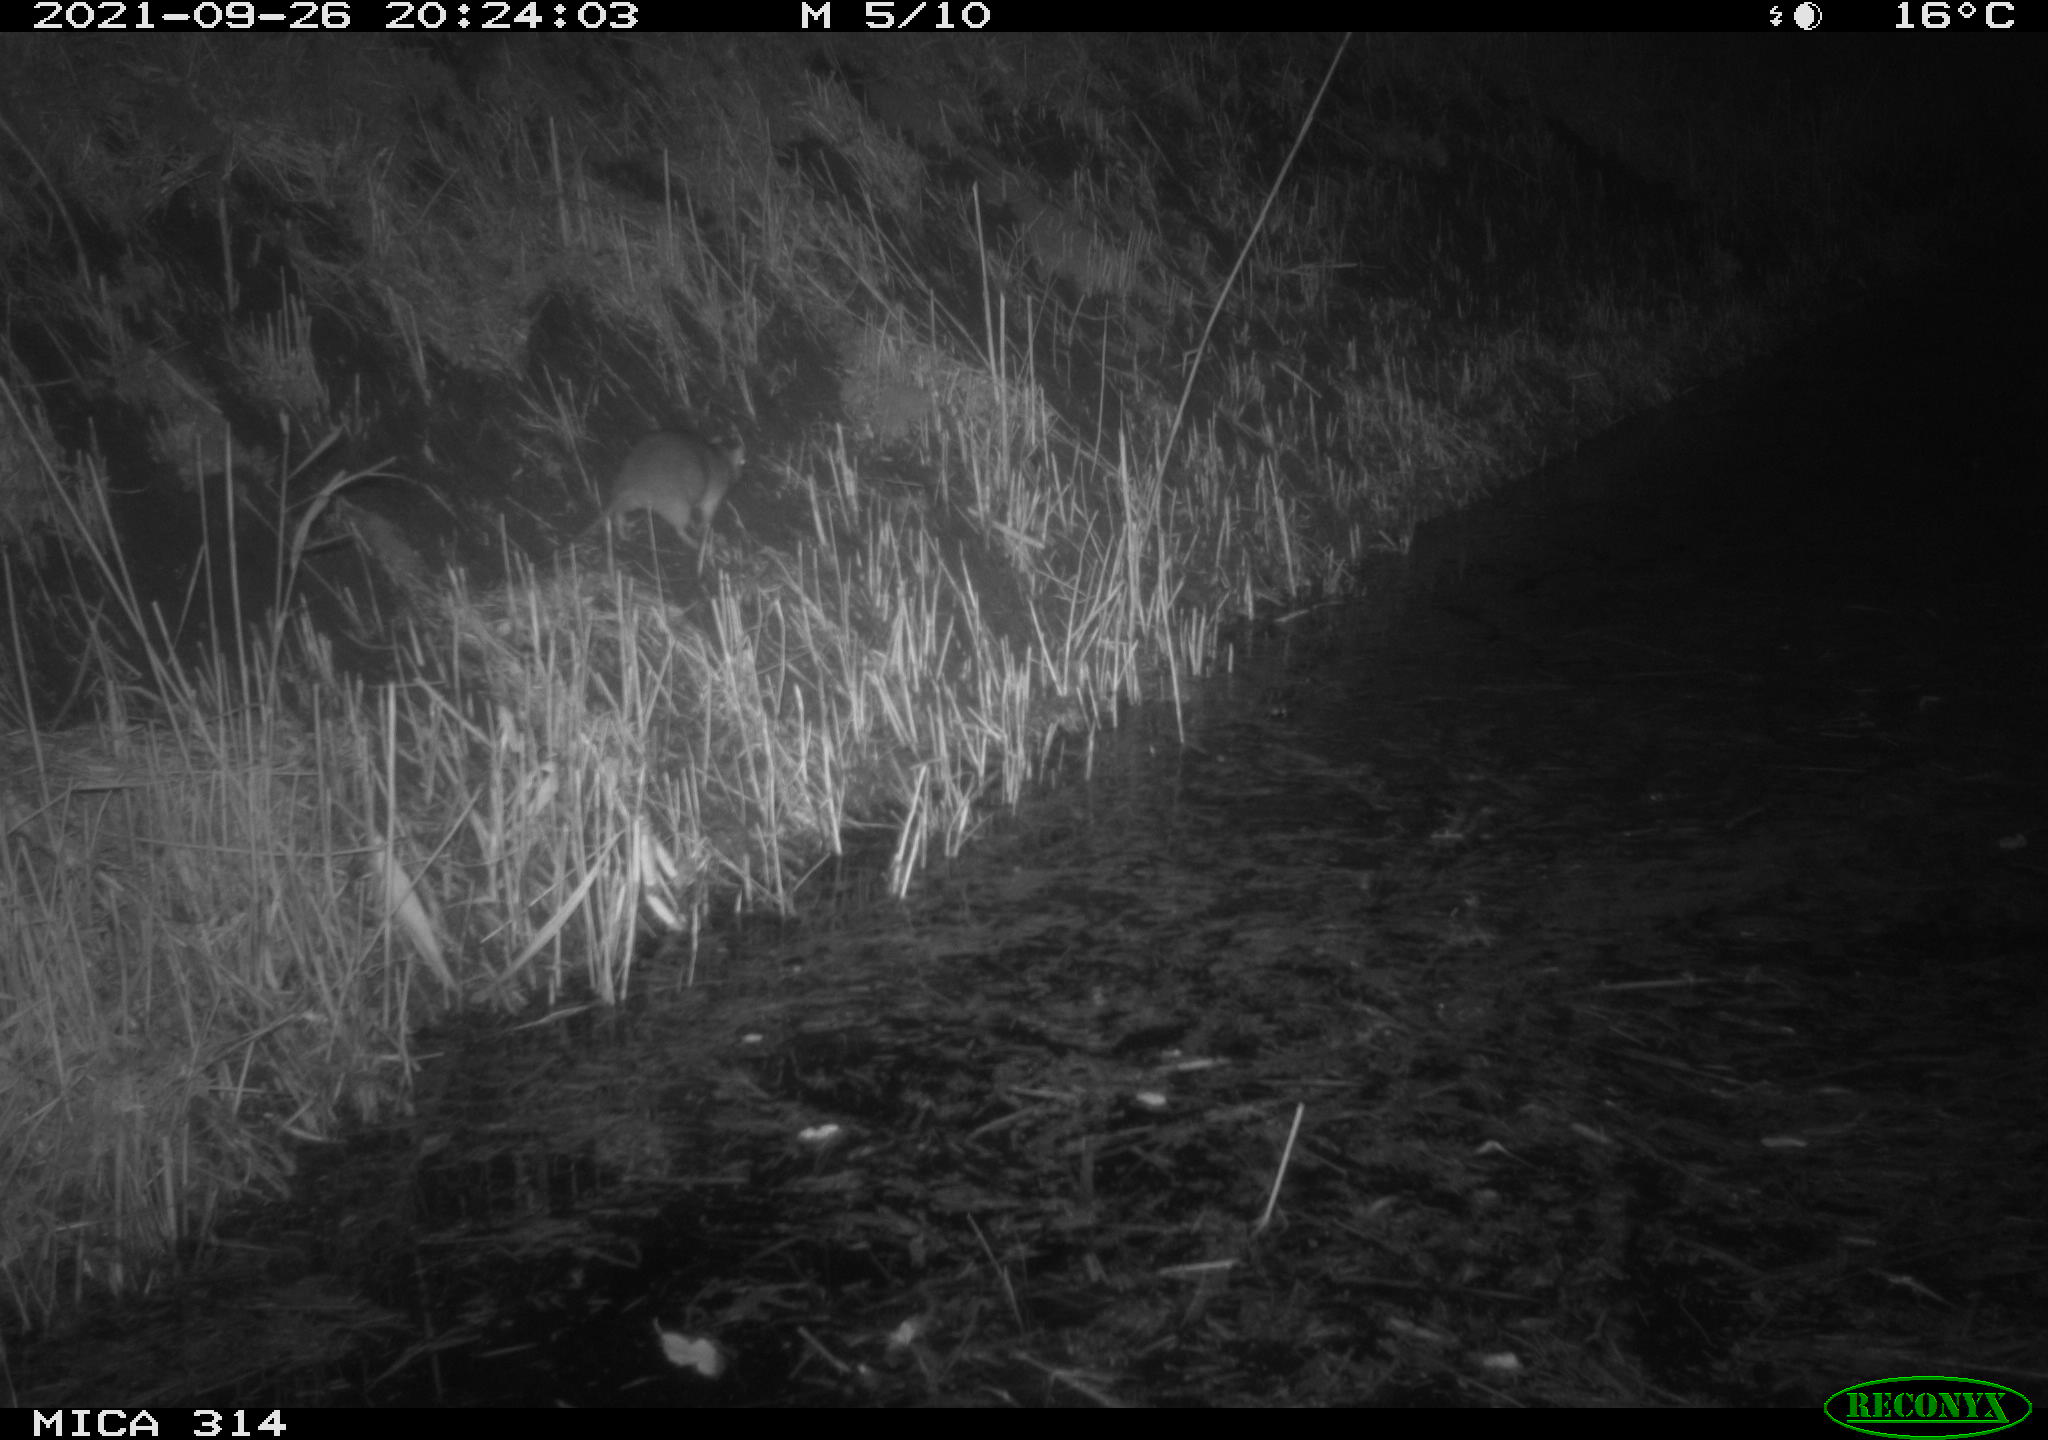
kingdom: Animalia
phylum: Chordata
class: Mammalia
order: Rodentia
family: Muridae
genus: Rattus
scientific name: Rattus norvegicus
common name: Brown rat
